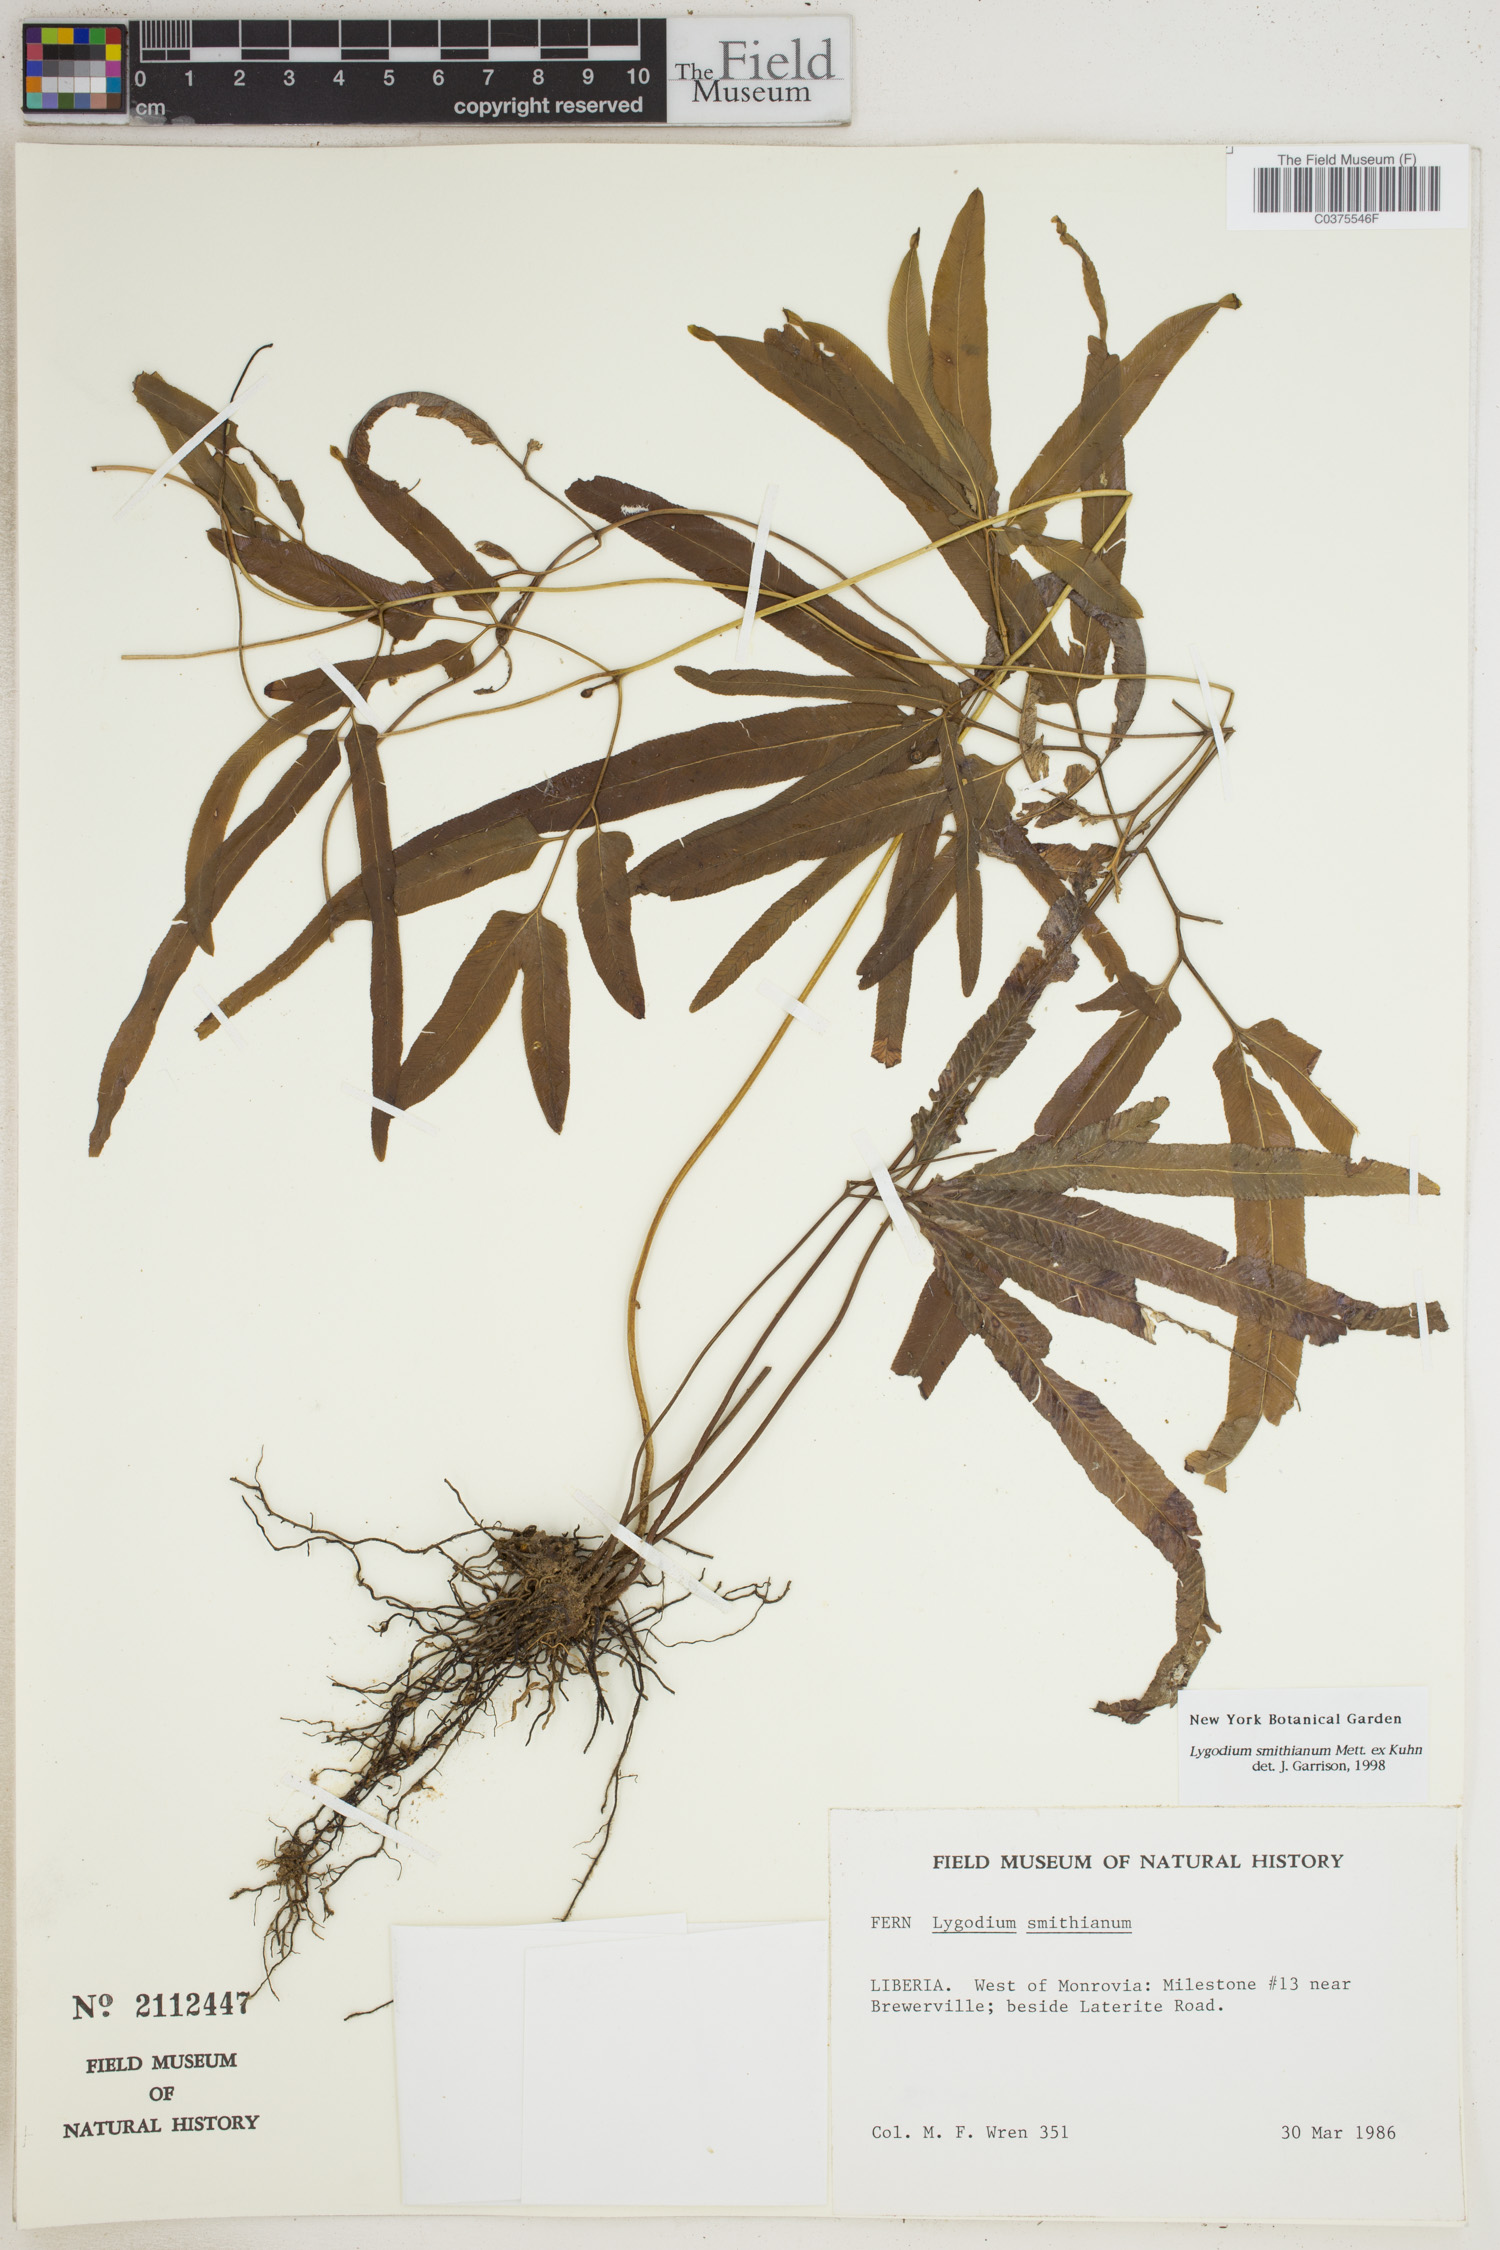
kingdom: Plantae
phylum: Tracheophyta
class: Polypodiopsida
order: Schizaeales
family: Lygodiaceae
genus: Lygodium
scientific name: Lygodium smithianum
